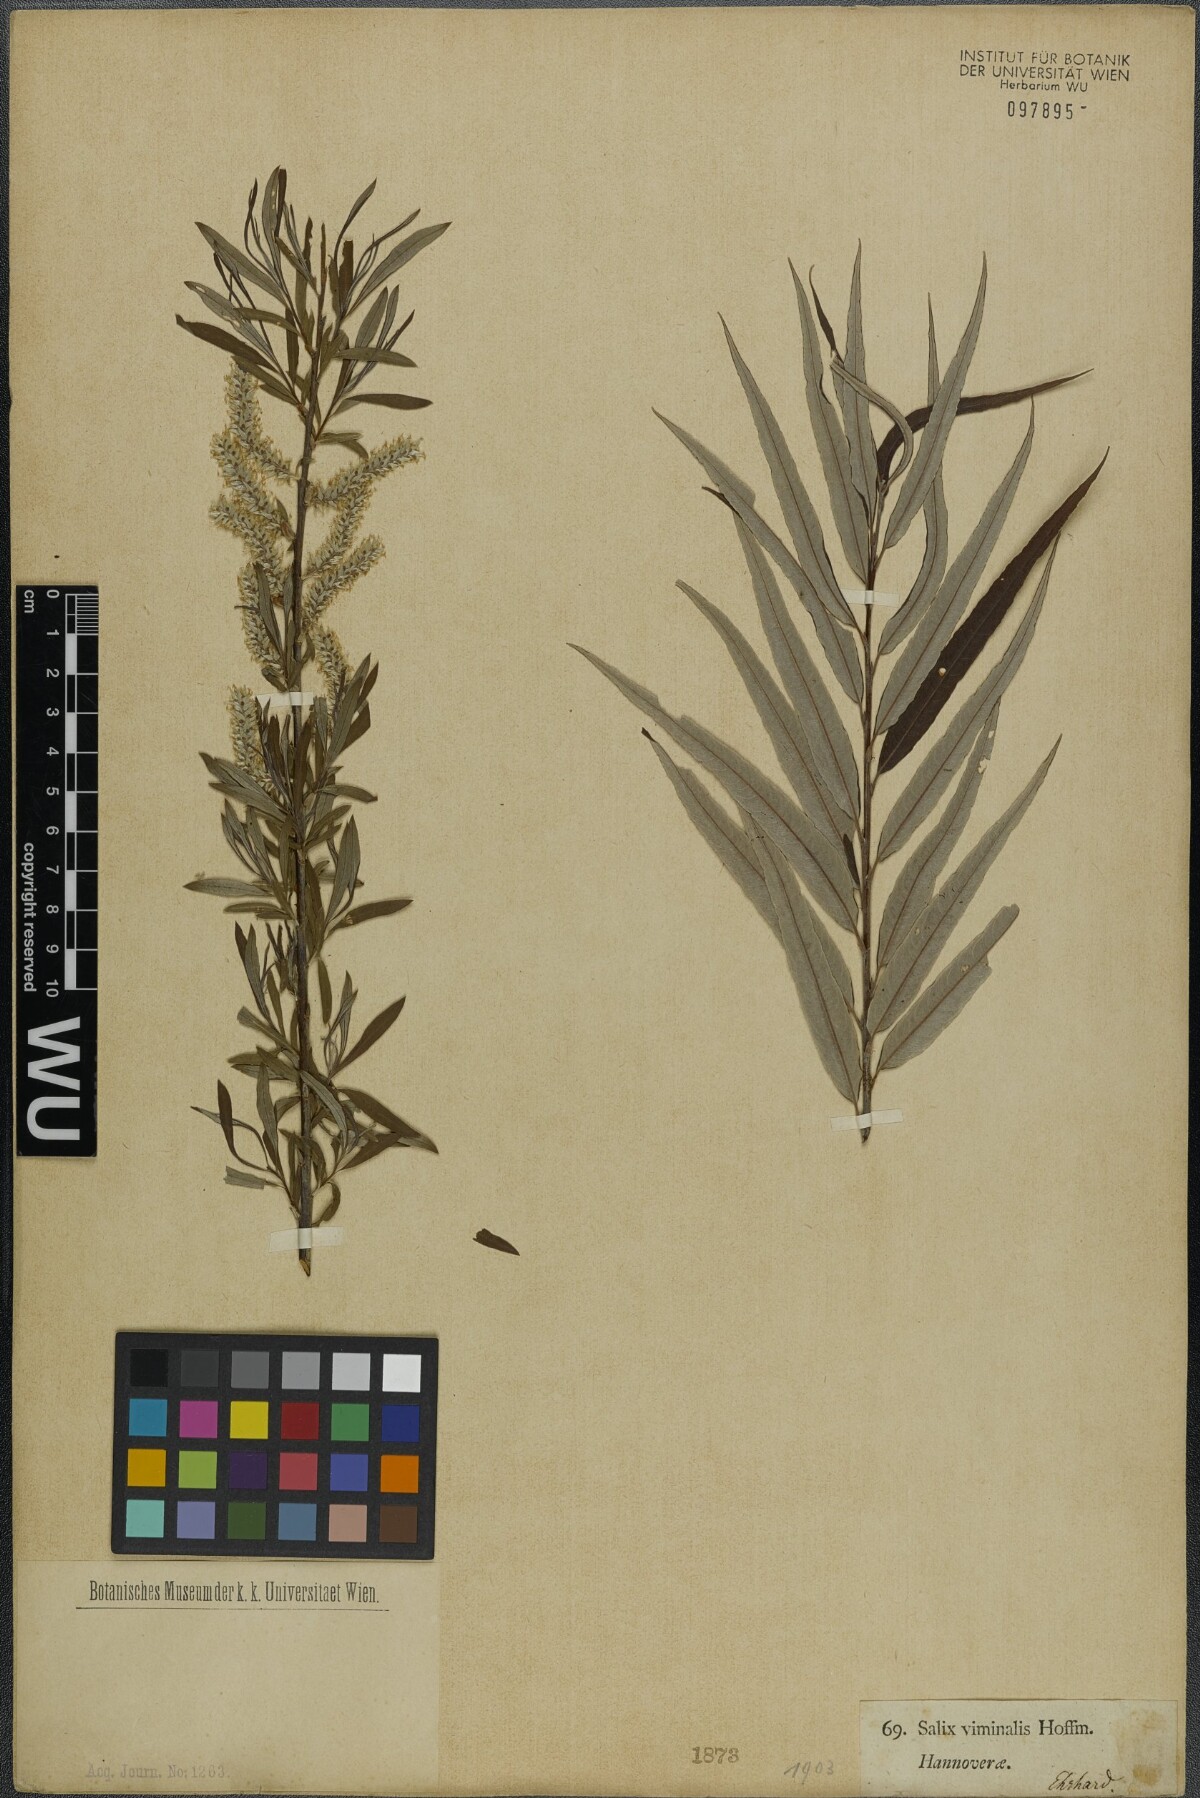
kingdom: Plantae
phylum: Tracheophyta
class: Magnoliopsida
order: Malpighiales
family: Salicaceae
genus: Salix
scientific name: Salix viminalis
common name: Osier
